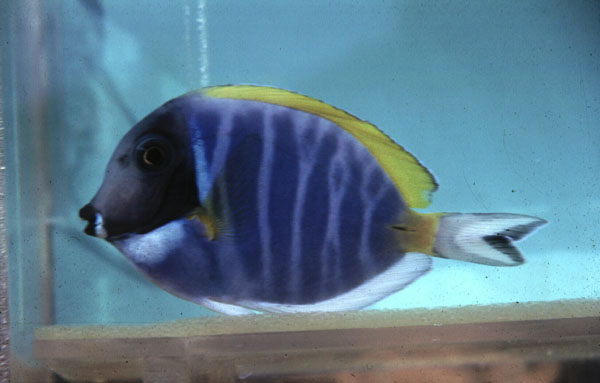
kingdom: Animalia
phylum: Chordata
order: Perciformes
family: Acanthuridae
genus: Acanthurus
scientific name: Acanthurus leucosternon
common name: Blue surgeonfish
